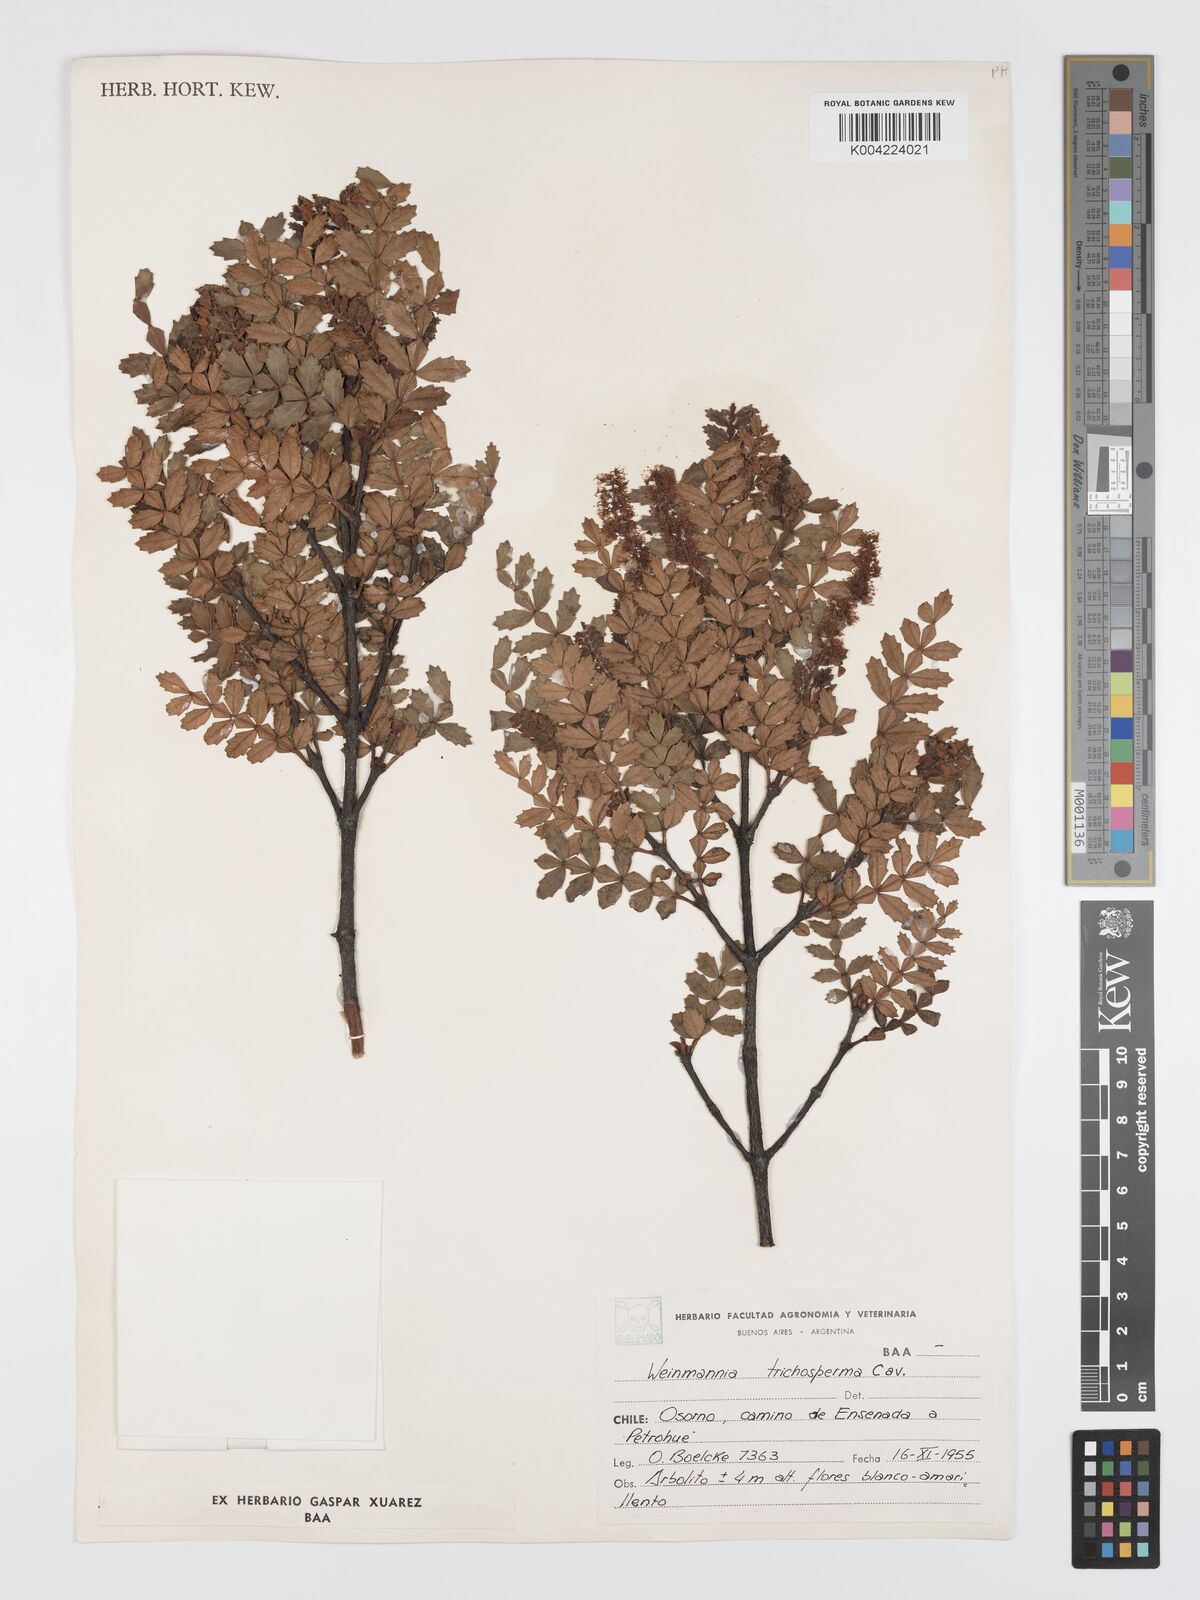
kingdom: Plantae
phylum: Tracheophyta
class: Magnoliopsida
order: Oxalidales
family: Cunoniaceae
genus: Weinmannia
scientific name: Weinmannia trichosperma
